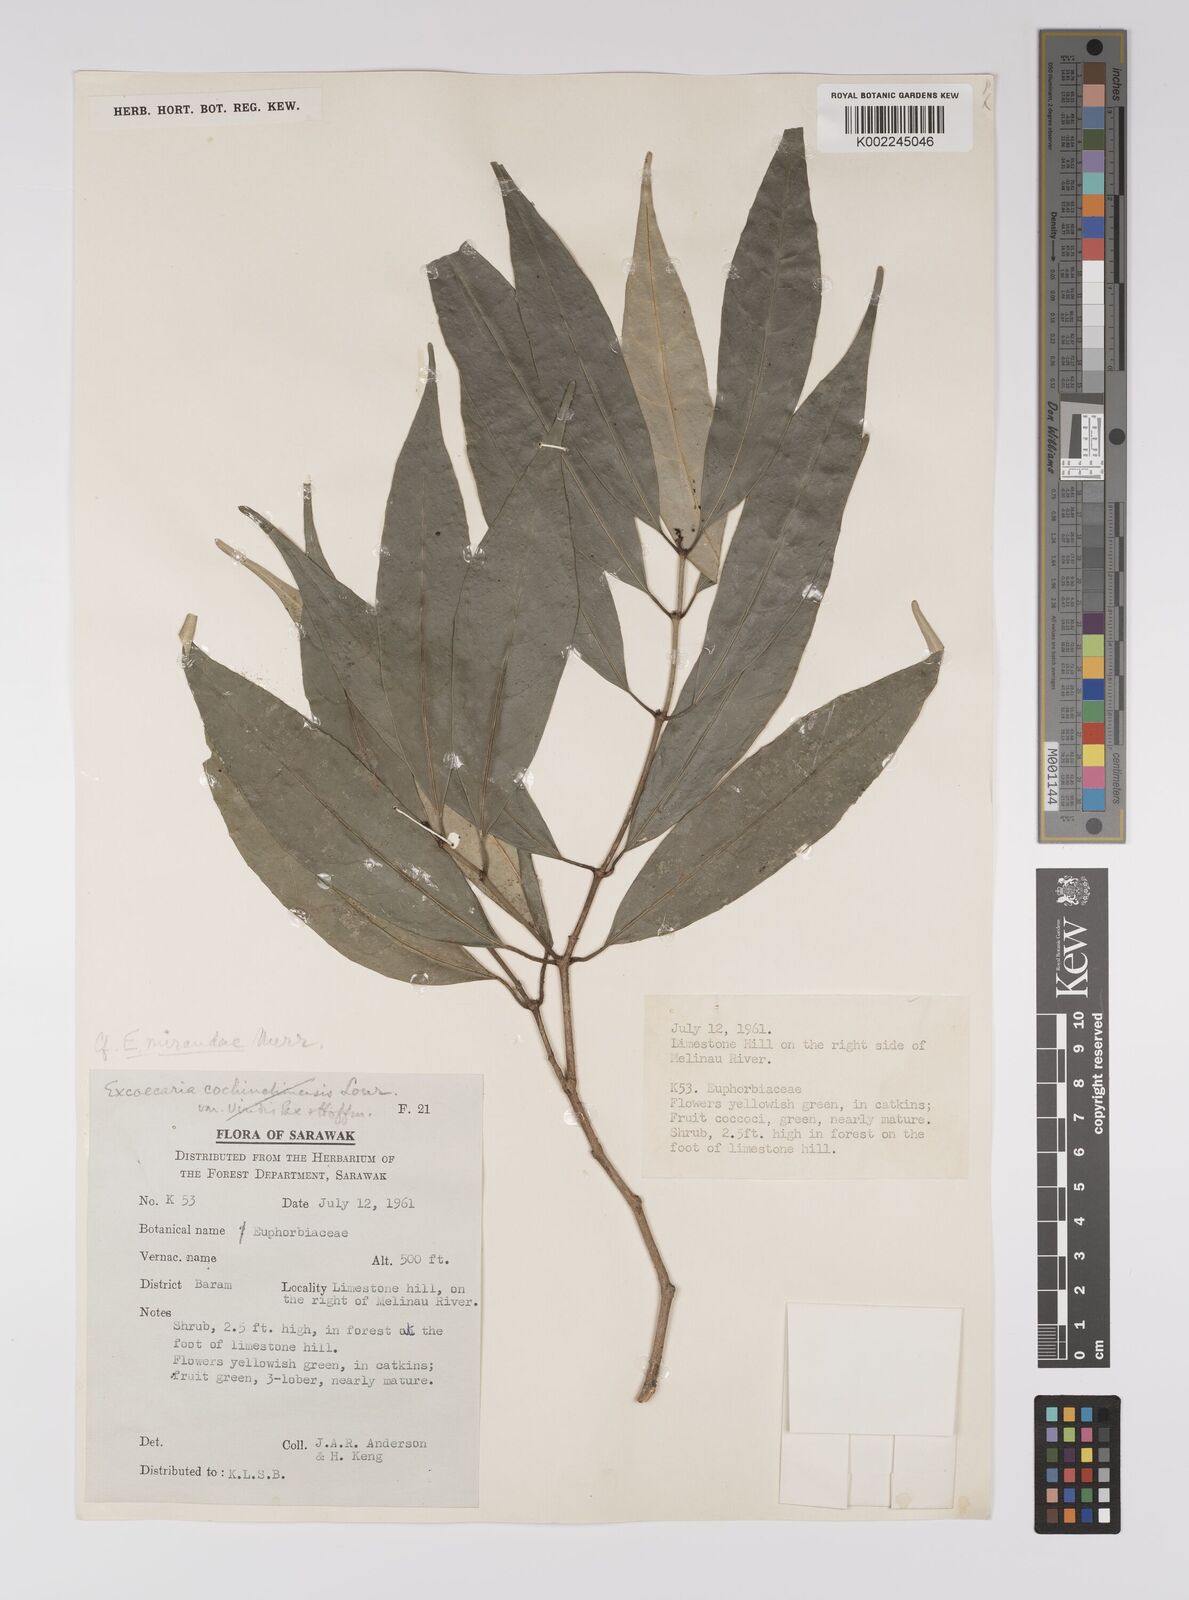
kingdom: Plantae
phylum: Tracheophyta
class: Magnoliopsida
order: Malpighiales
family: Euphorbiaceae
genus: Excoecaria
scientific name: Excoecaria borneensis
